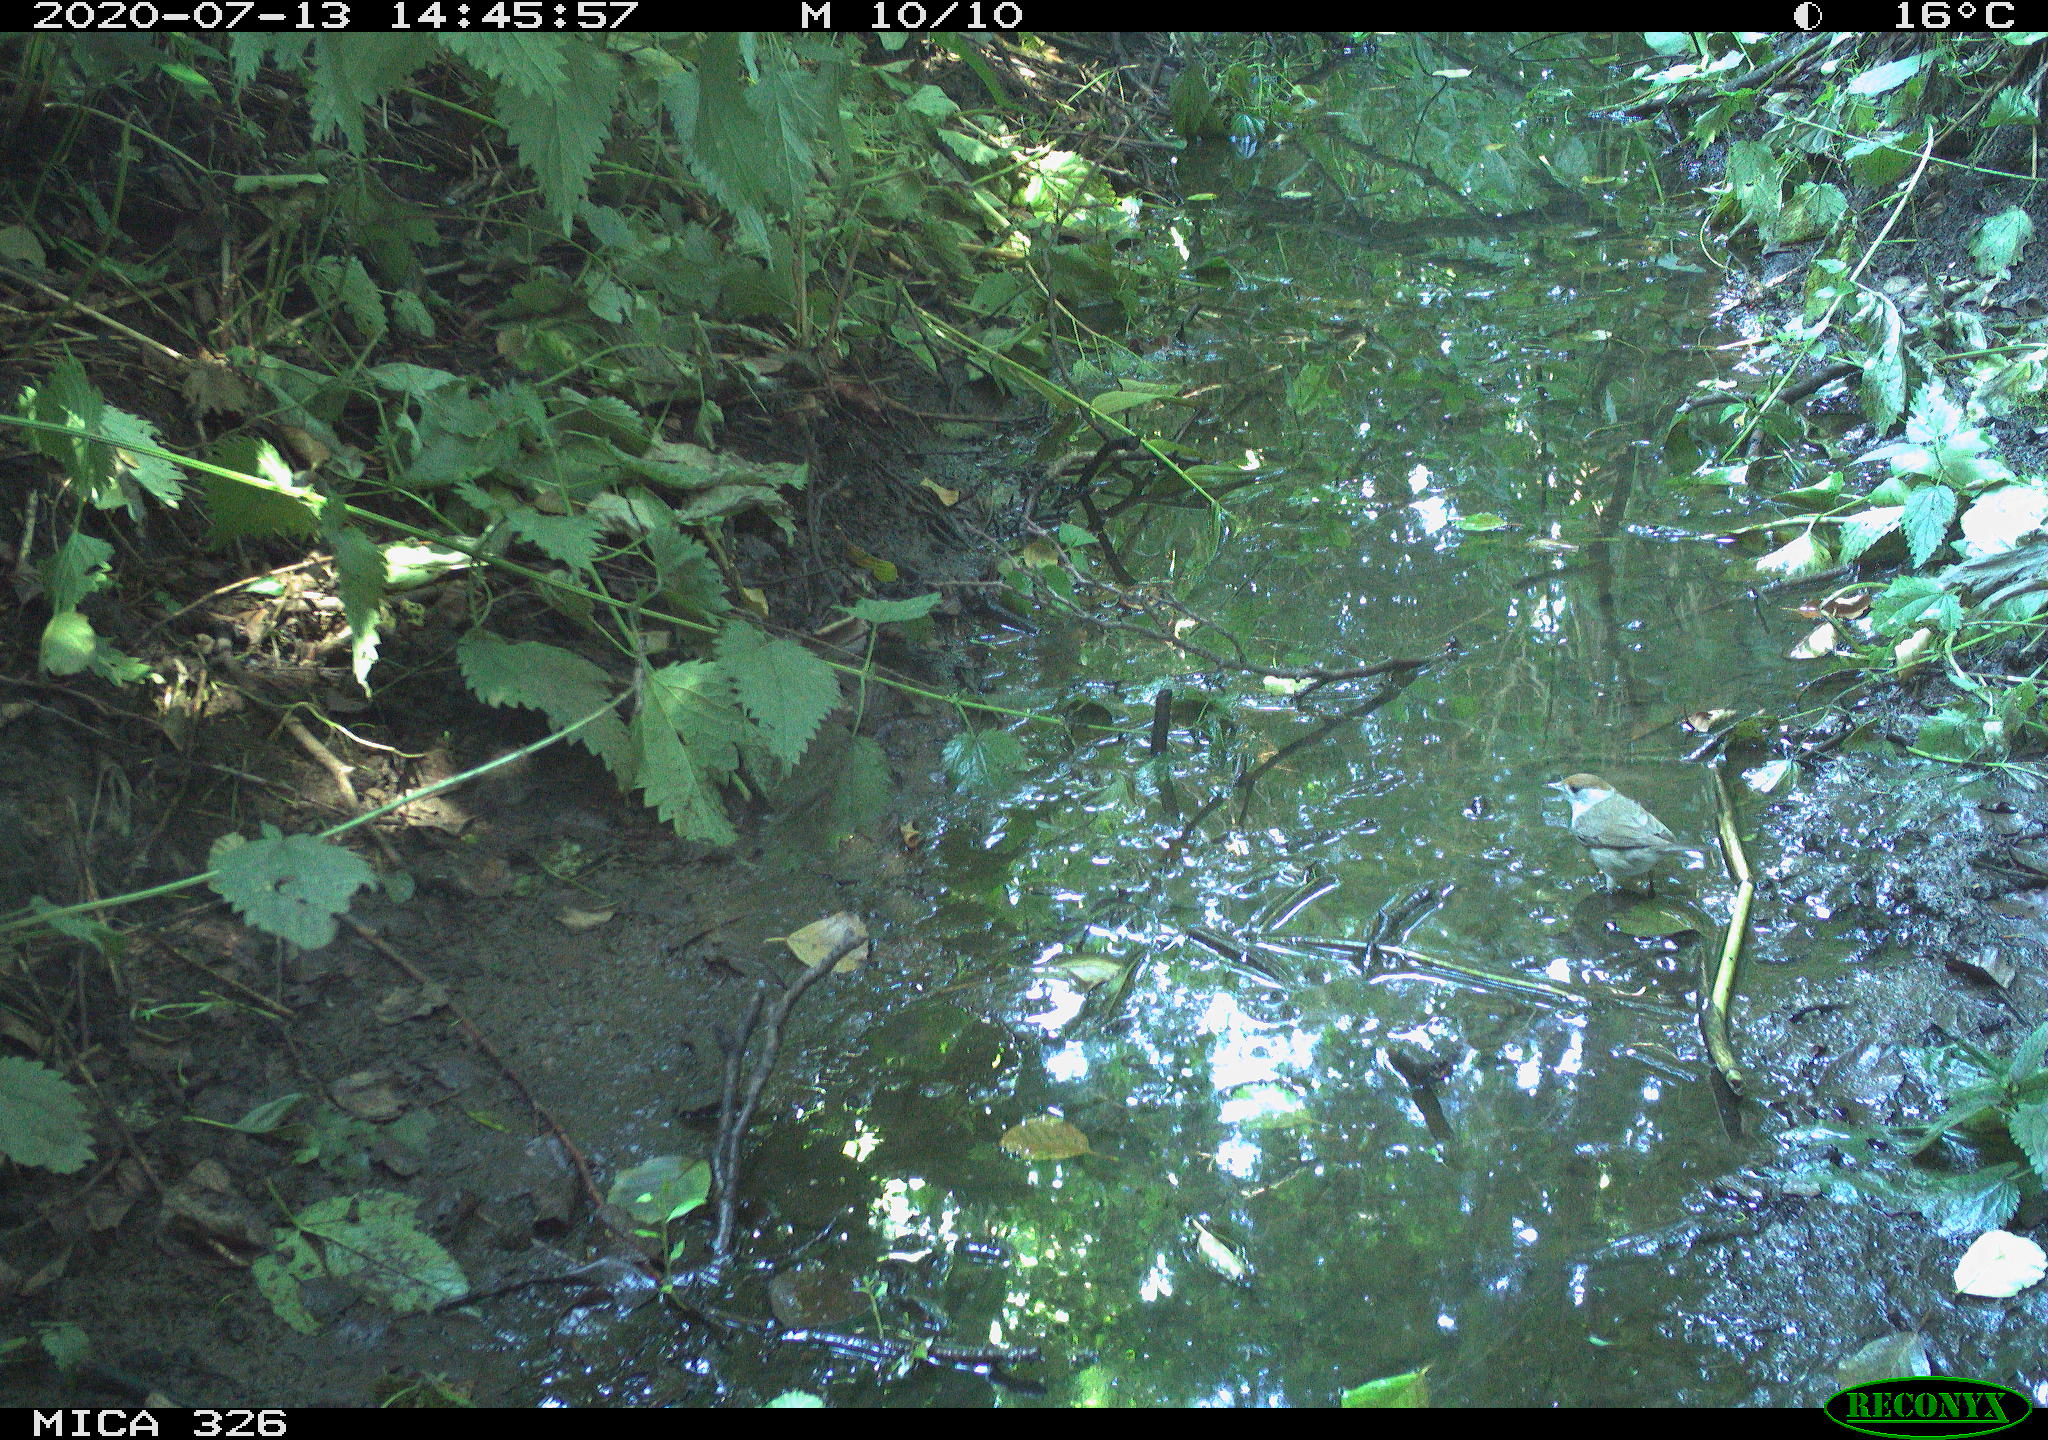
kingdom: Animalia
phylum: Chordata
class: Aves
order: Passeriformes
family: Sylviidae
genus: Sylvia
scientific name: Sylvia atricapilla
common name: Eurasian blackcap
